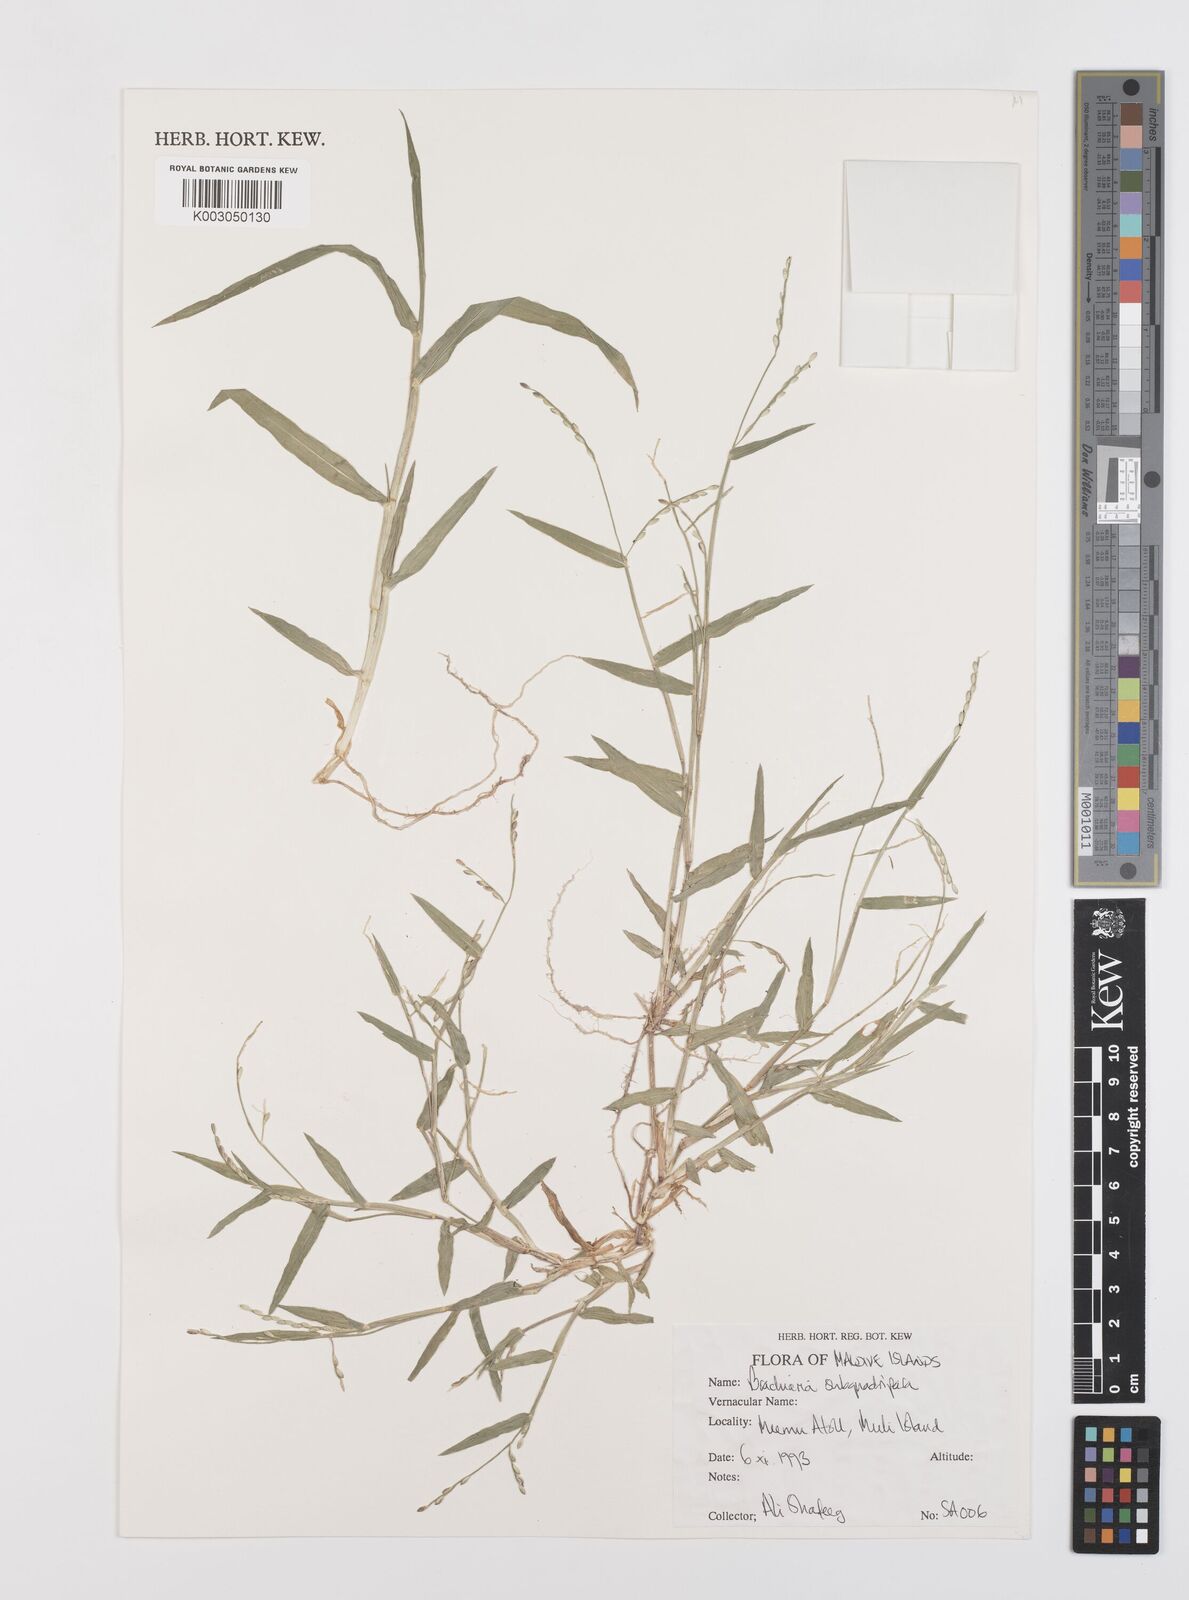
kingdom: Plantae
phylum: Tracheophyta
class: Liliopsida
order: Poales
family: Poaceae
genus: Urochloa
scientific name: Urochloa subquadripara
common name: Armgrass millet
